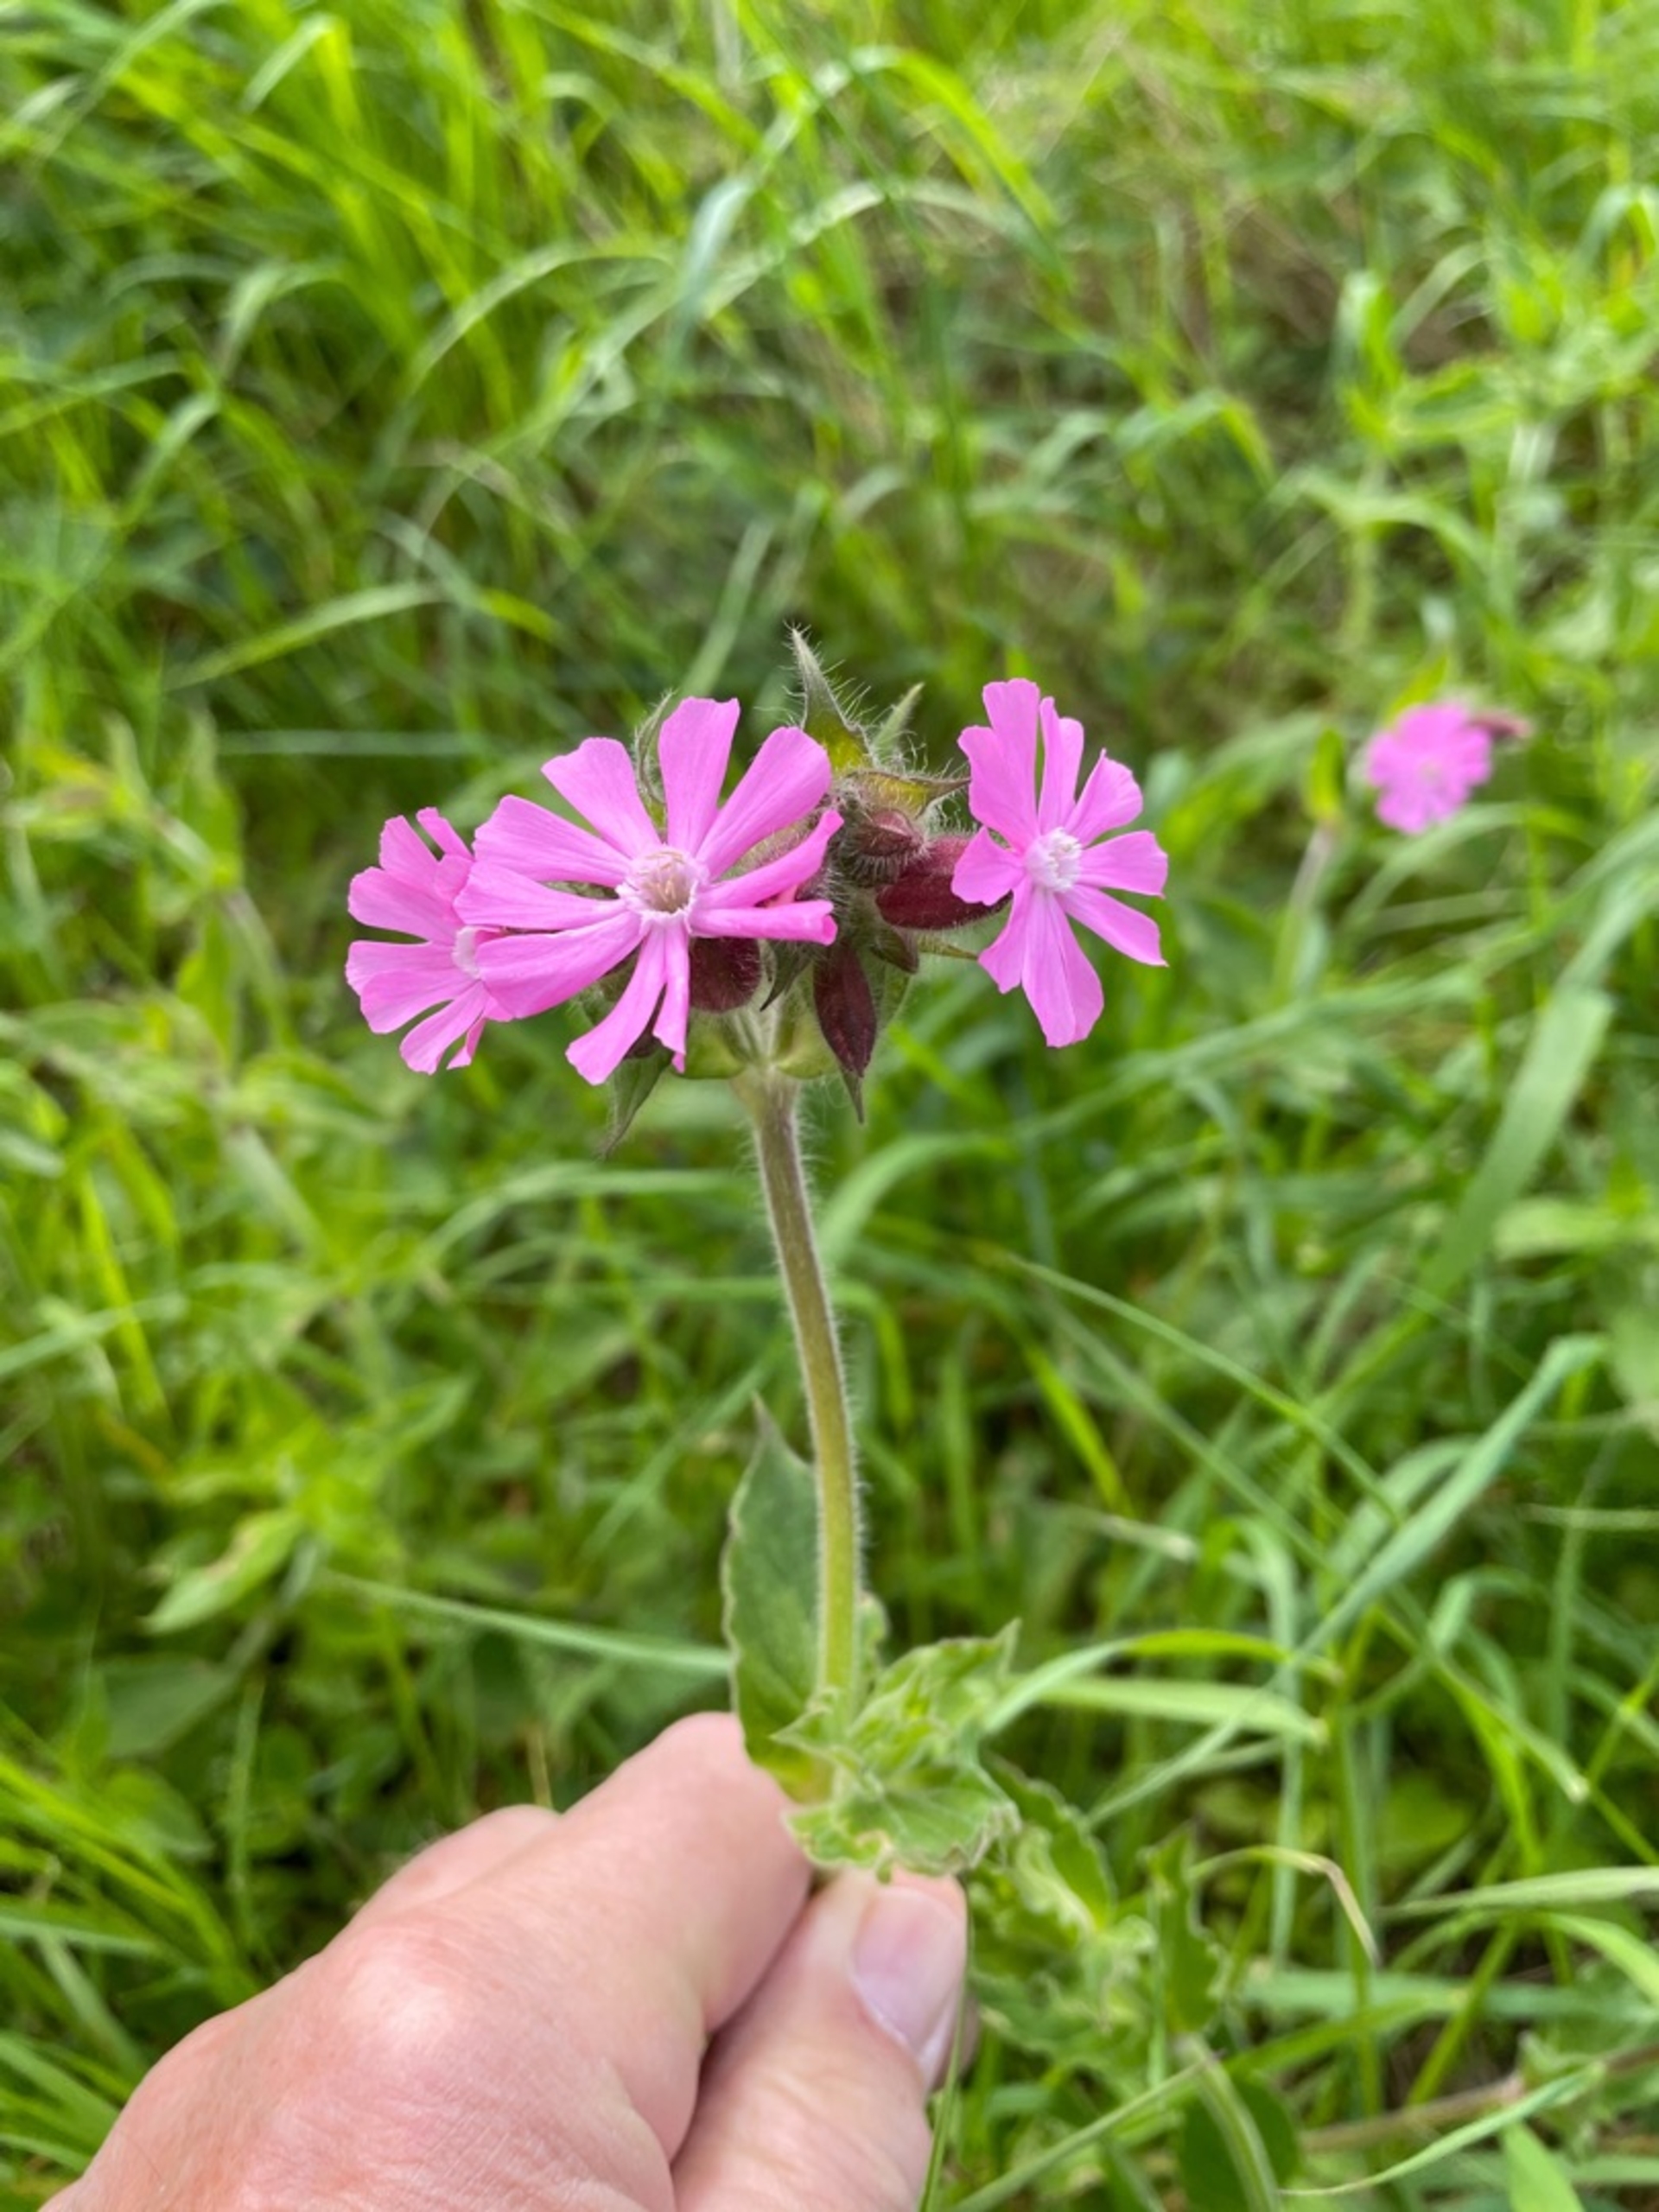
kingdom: Plantae
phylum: Tracheophyta
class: Magnoliopsida
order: Caryophyllales
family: Caryophyllaceae
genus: Silene
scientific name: Silene dioica
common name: Dagpragtstjerne
